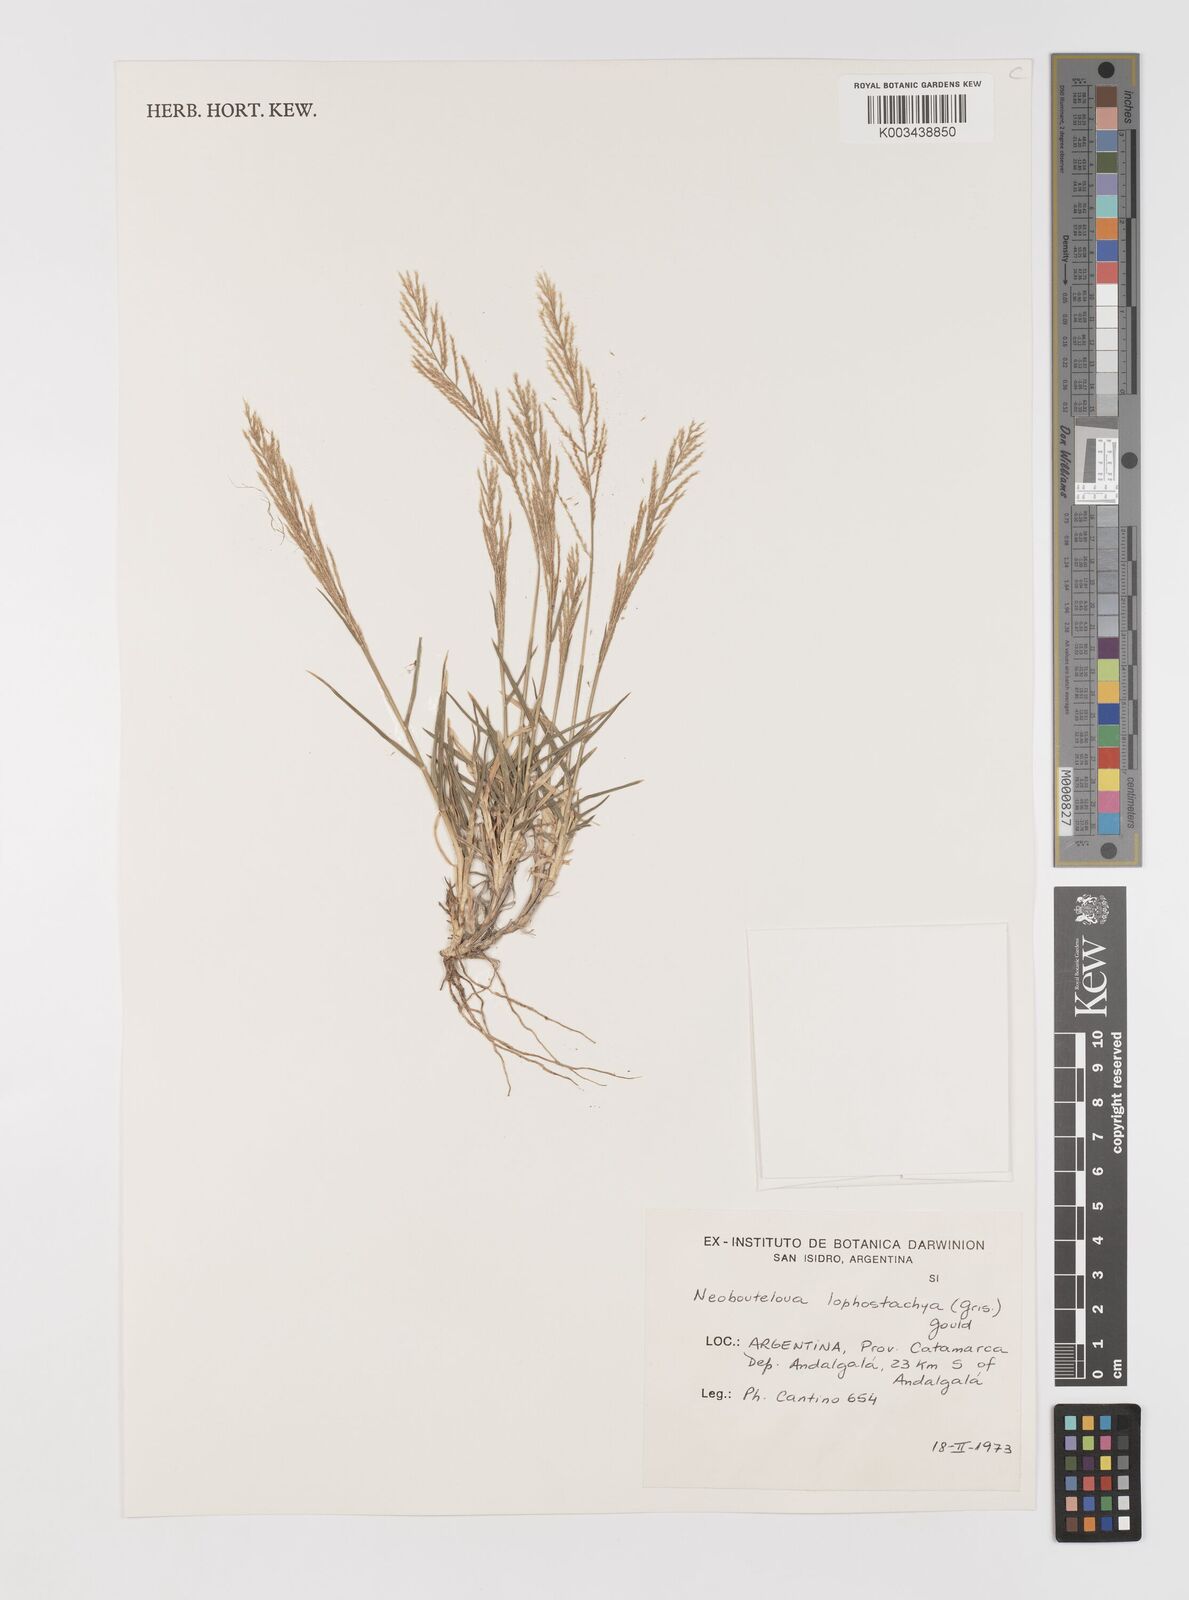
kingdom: Plantae
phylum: Tracheophyta
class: Liliopsida
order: Poales
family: Poaceae
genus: Neobouteloua
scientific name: Neobouteloua lophostachya
